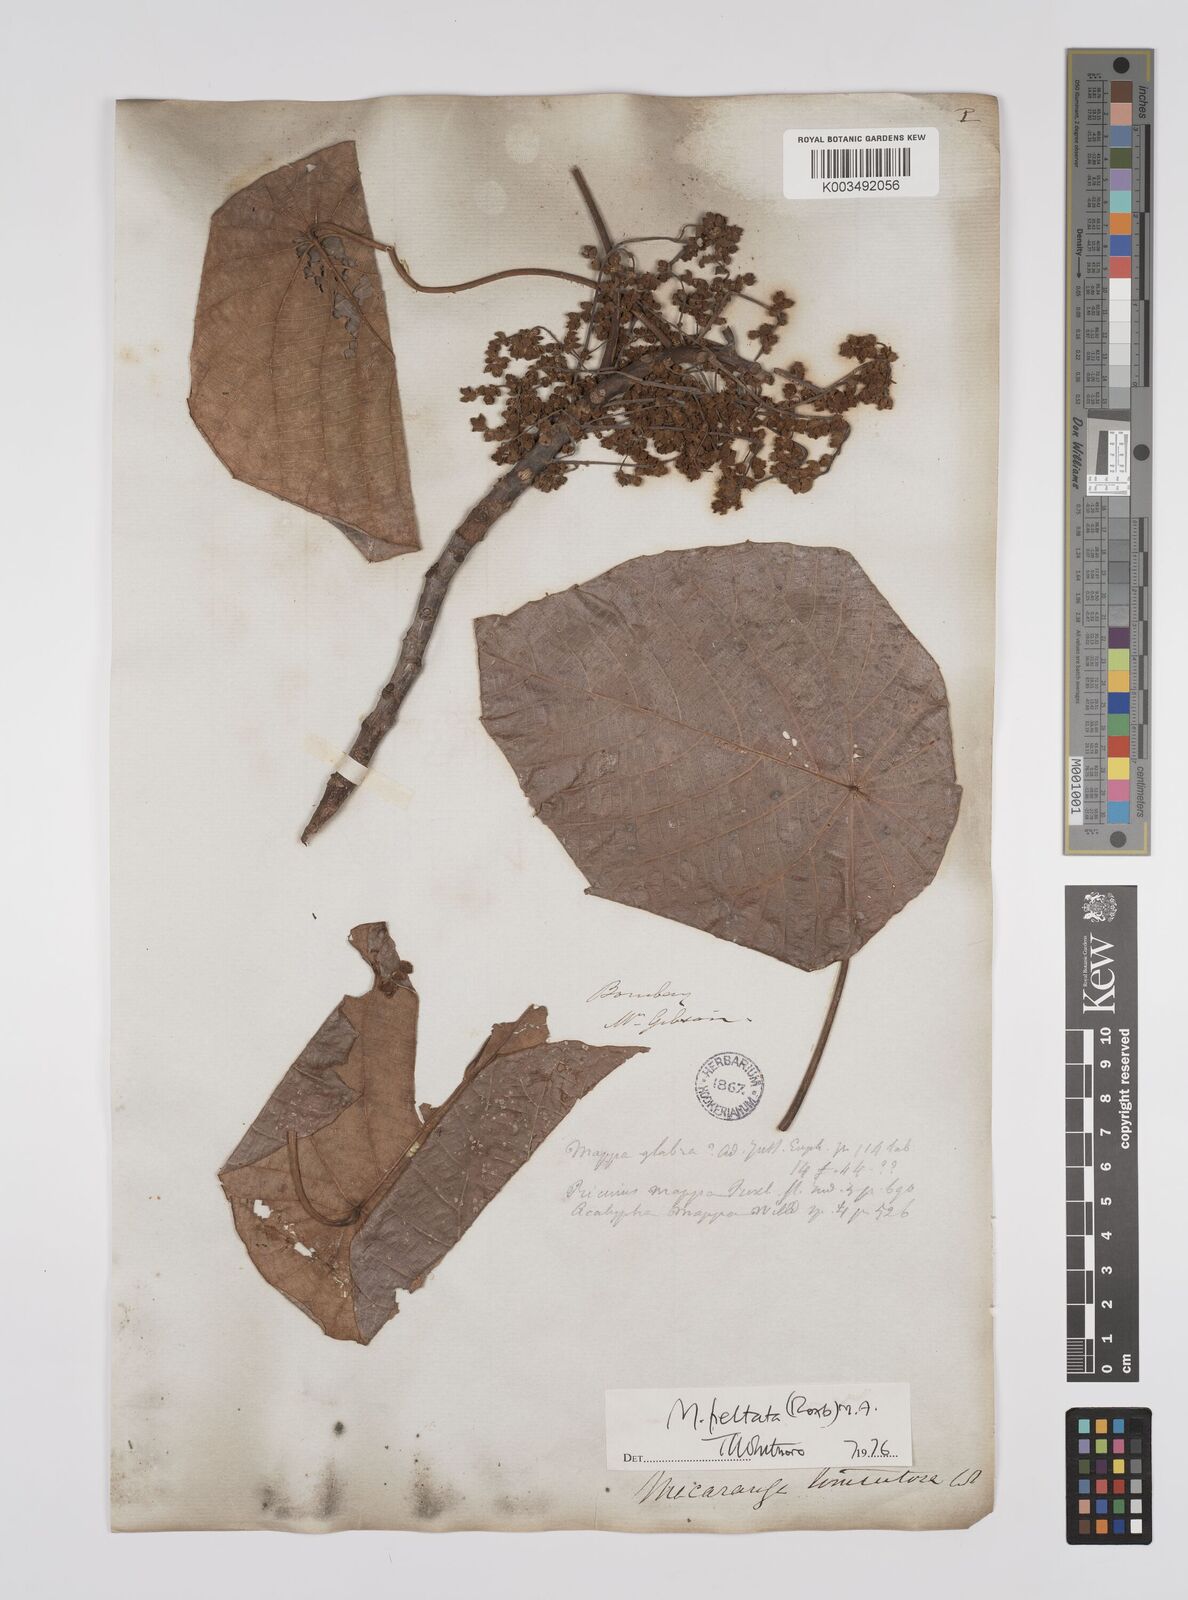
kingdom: Plantae
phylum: Tracheophyta
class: Magnoliopsida
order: Malpighiales
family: Euphorbiaceae
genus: Macaranga
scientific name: Macaranga peltata
